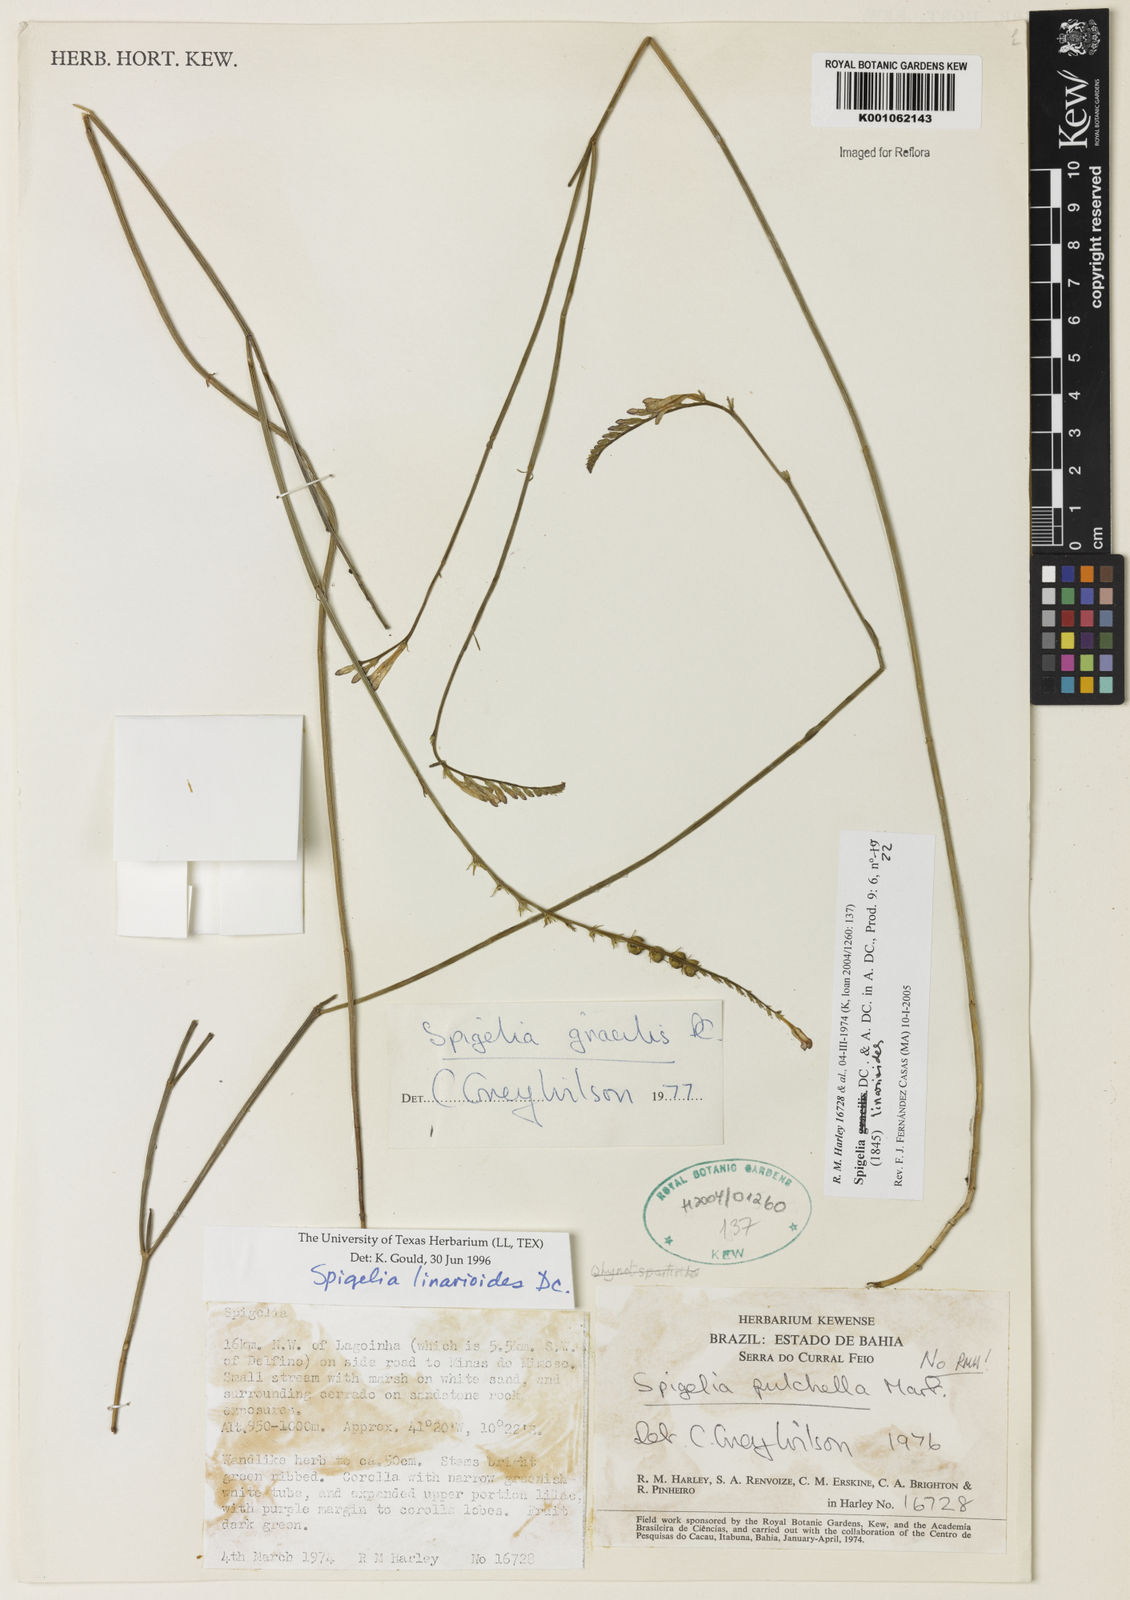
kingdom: Plantae
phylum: Tracheophyta
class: Magnoliopsida
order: Gentianales
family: Loganiaceae
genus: Spigelia
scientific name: Spigelia linarioides
